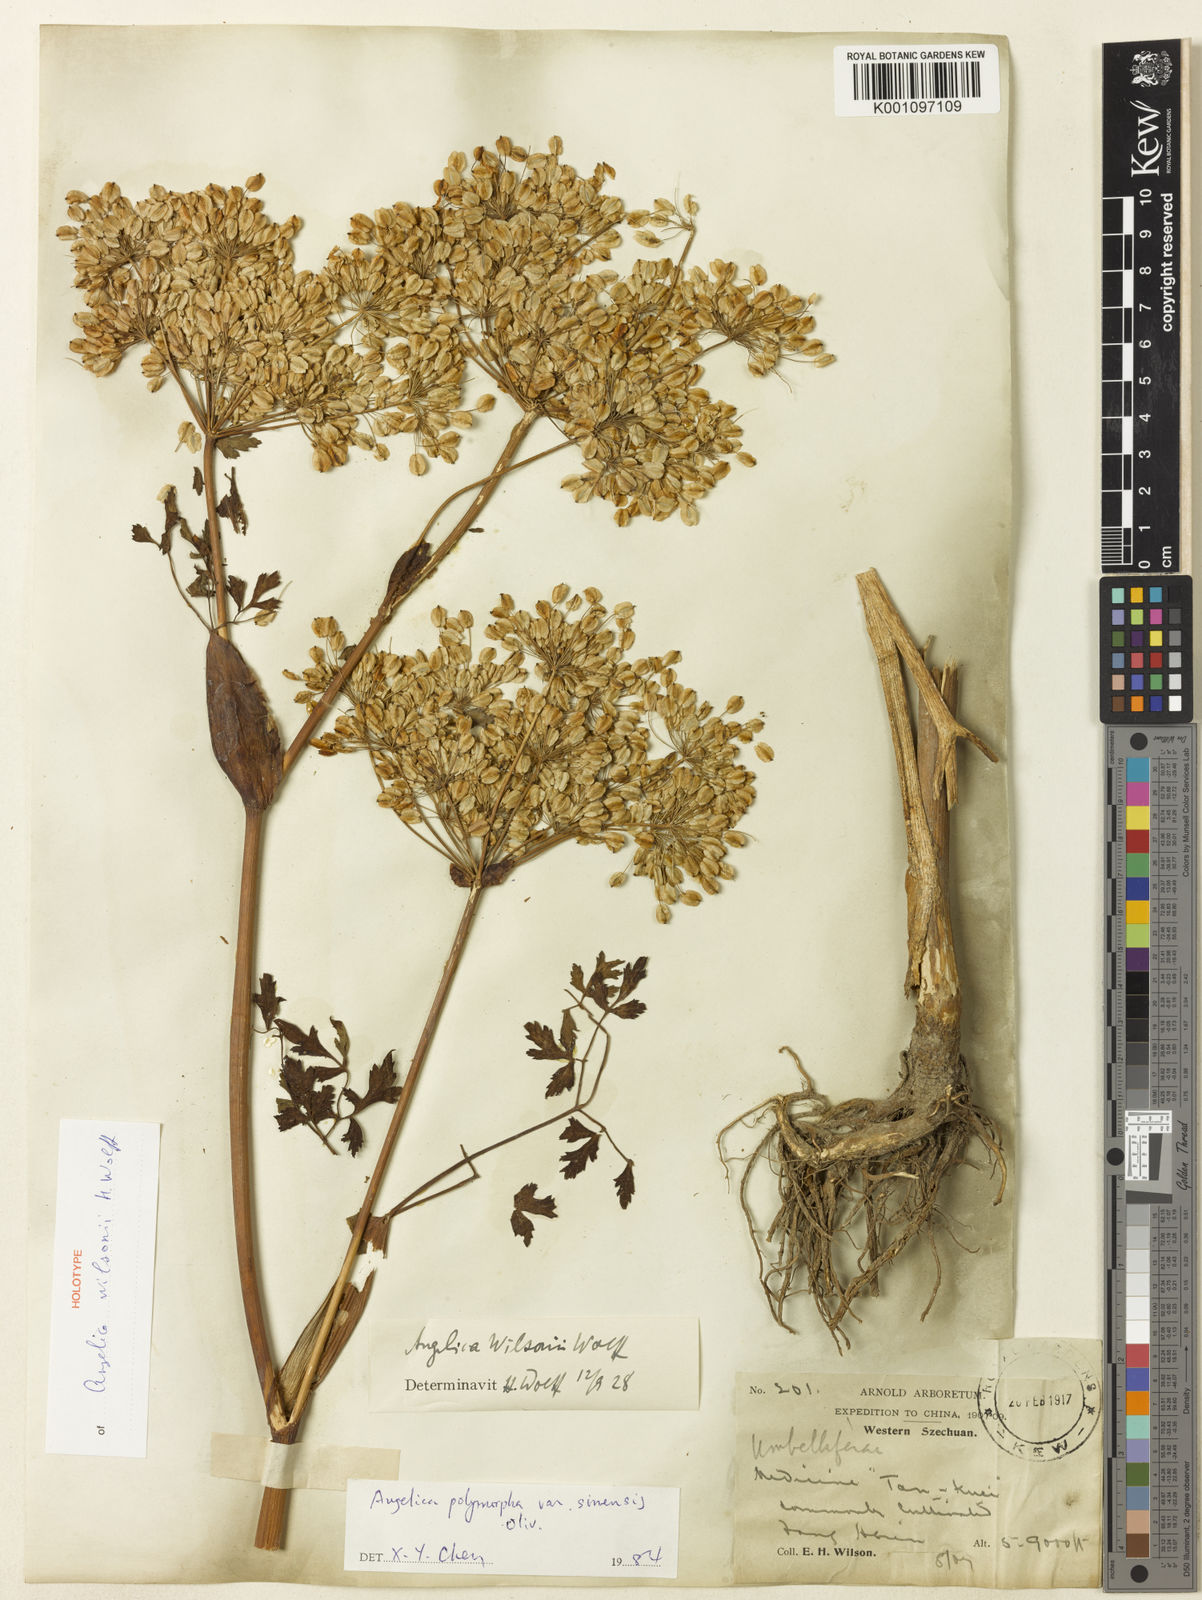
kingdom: Plantae
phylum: Tracheophyta
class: Magnoliopsida
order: Apiales
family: Apiaceae
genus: Angelica
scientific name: Angelica wilsonii
